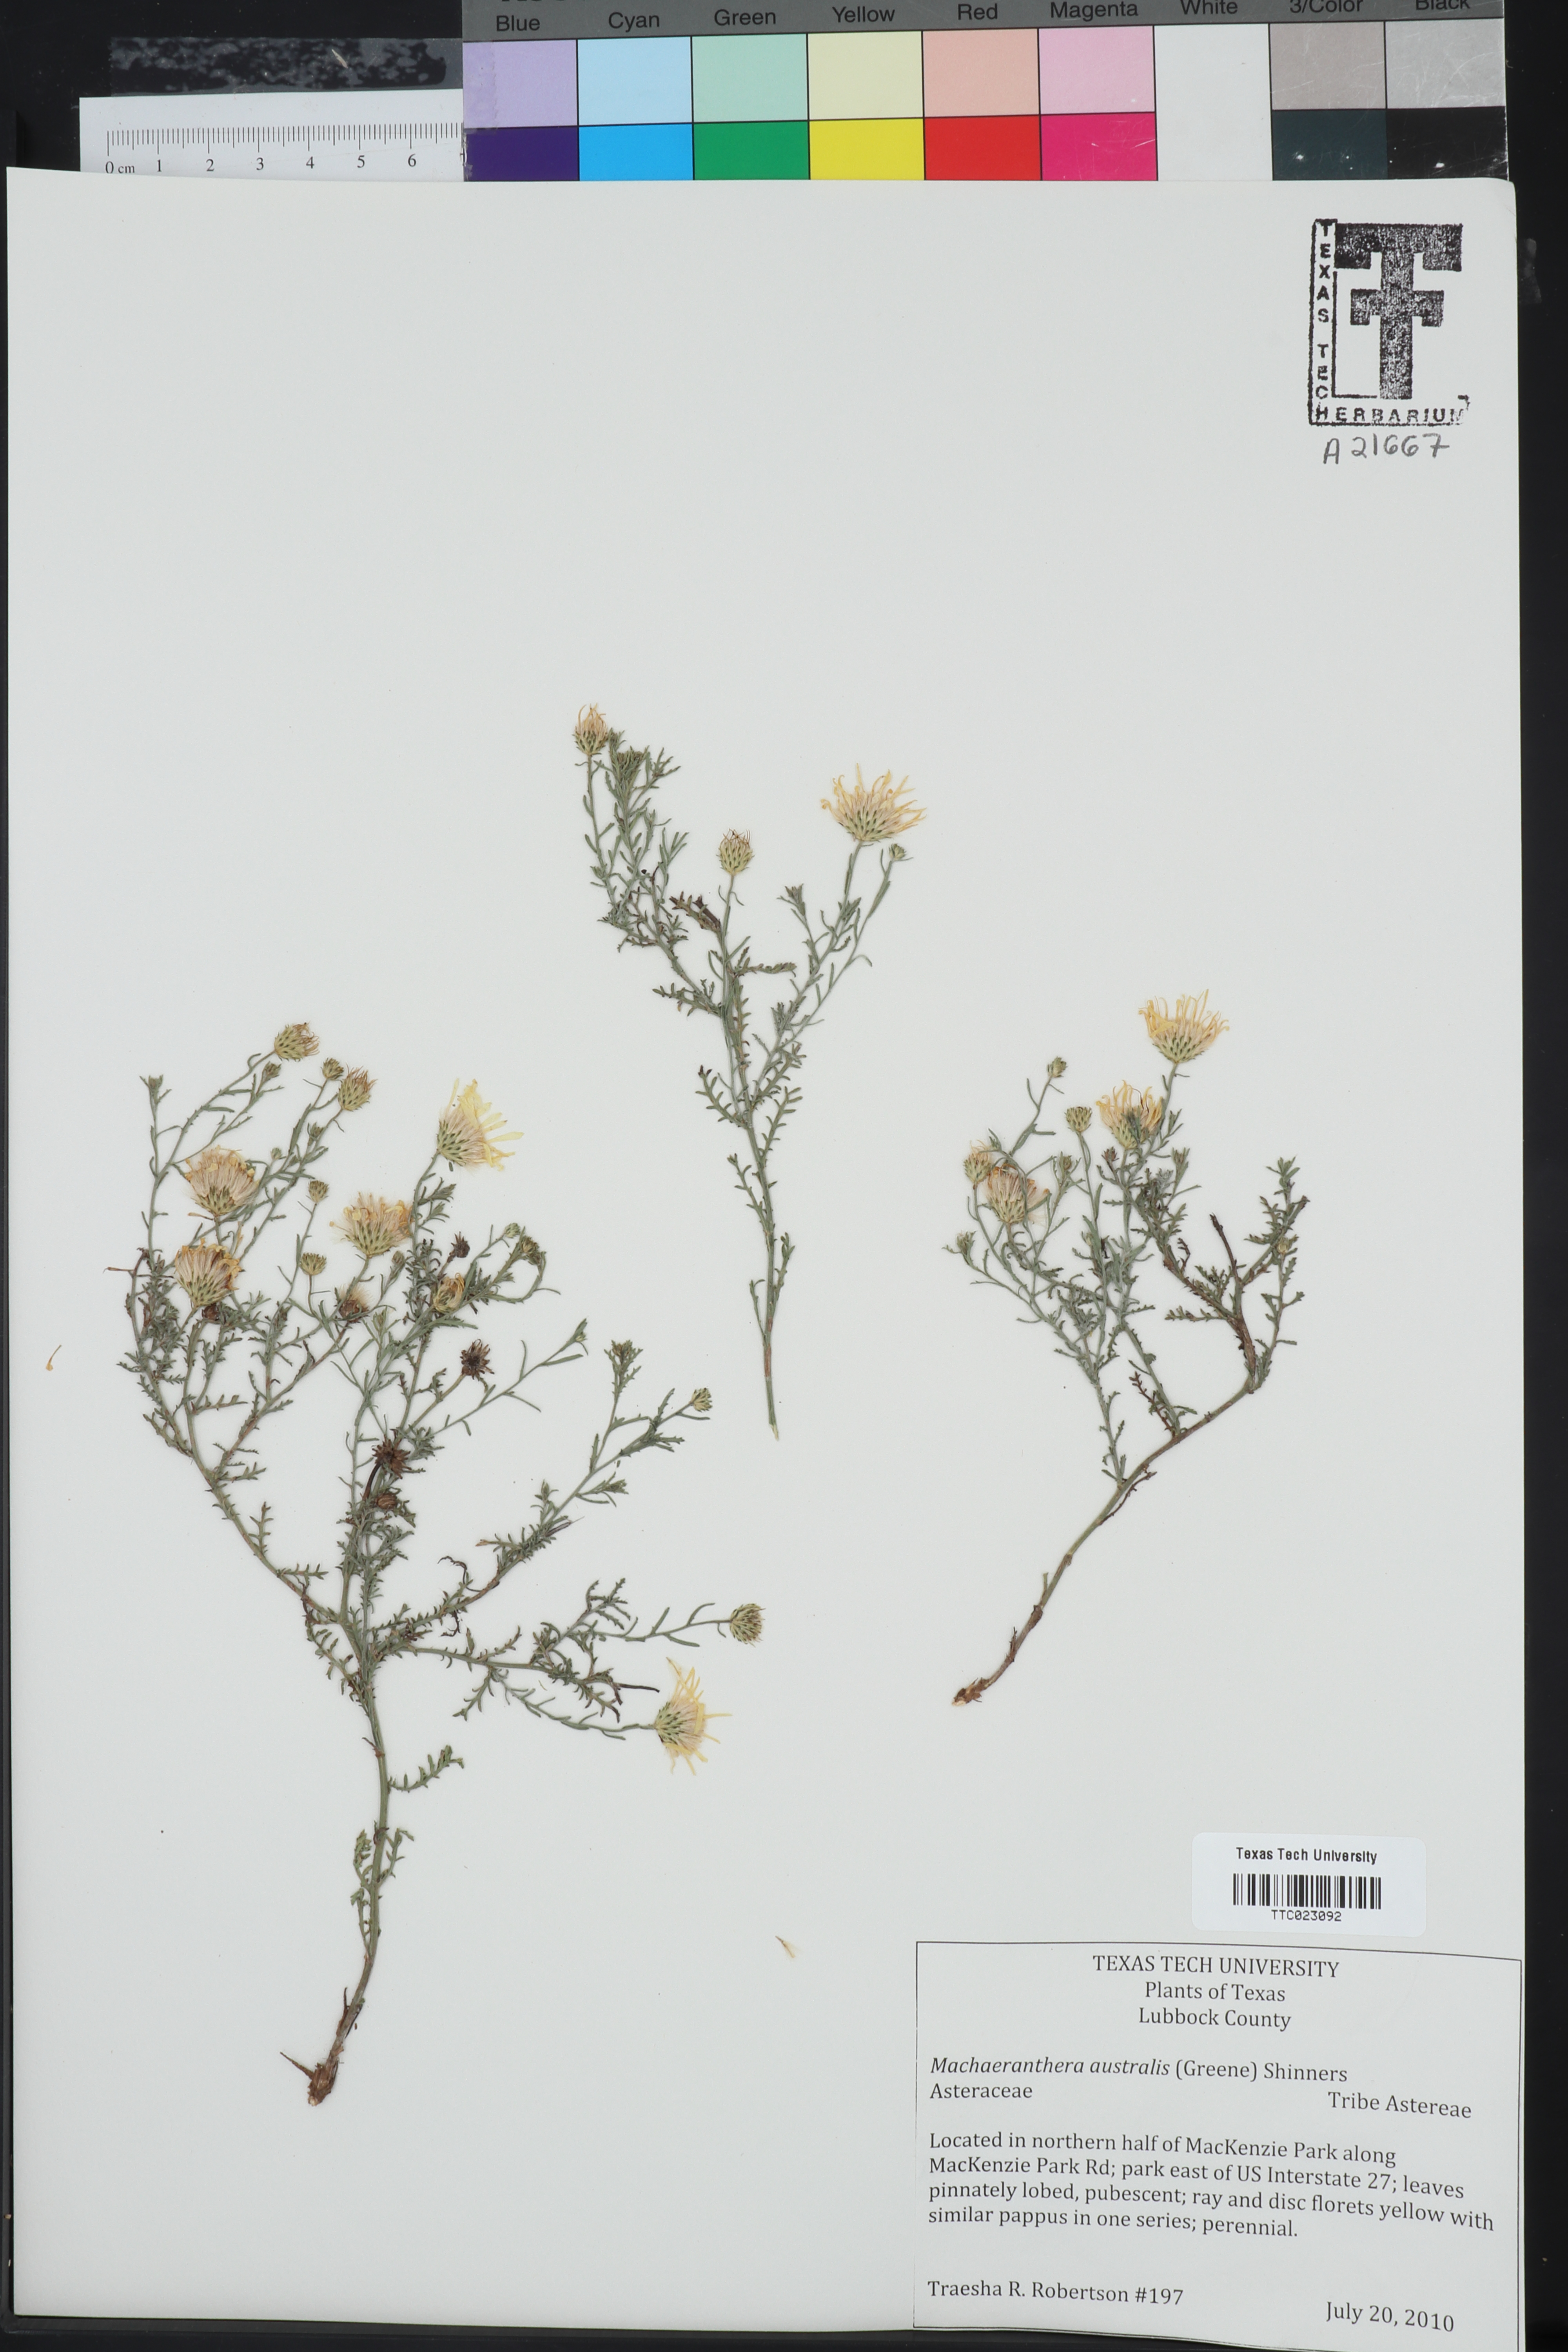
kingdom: Plantae
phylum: Tracheophyta
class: Magnoliopsida
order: Asterales
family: Asteraceae
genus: Xanthisma
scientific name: Xanthisma spinulosum
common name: Spiny goldenweed
